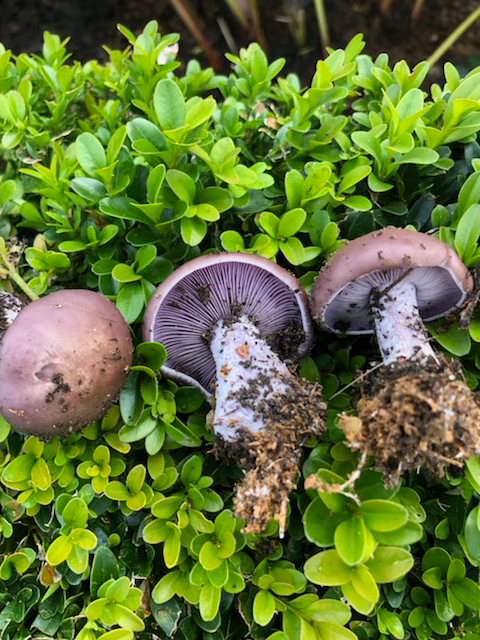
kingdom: Fungi
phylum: Basidiomycota
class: Agaricomycetes
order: Agaricales
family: Tricholomataceae
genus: Lepista
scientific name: Lepista nuda
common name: violet hekseringshat
